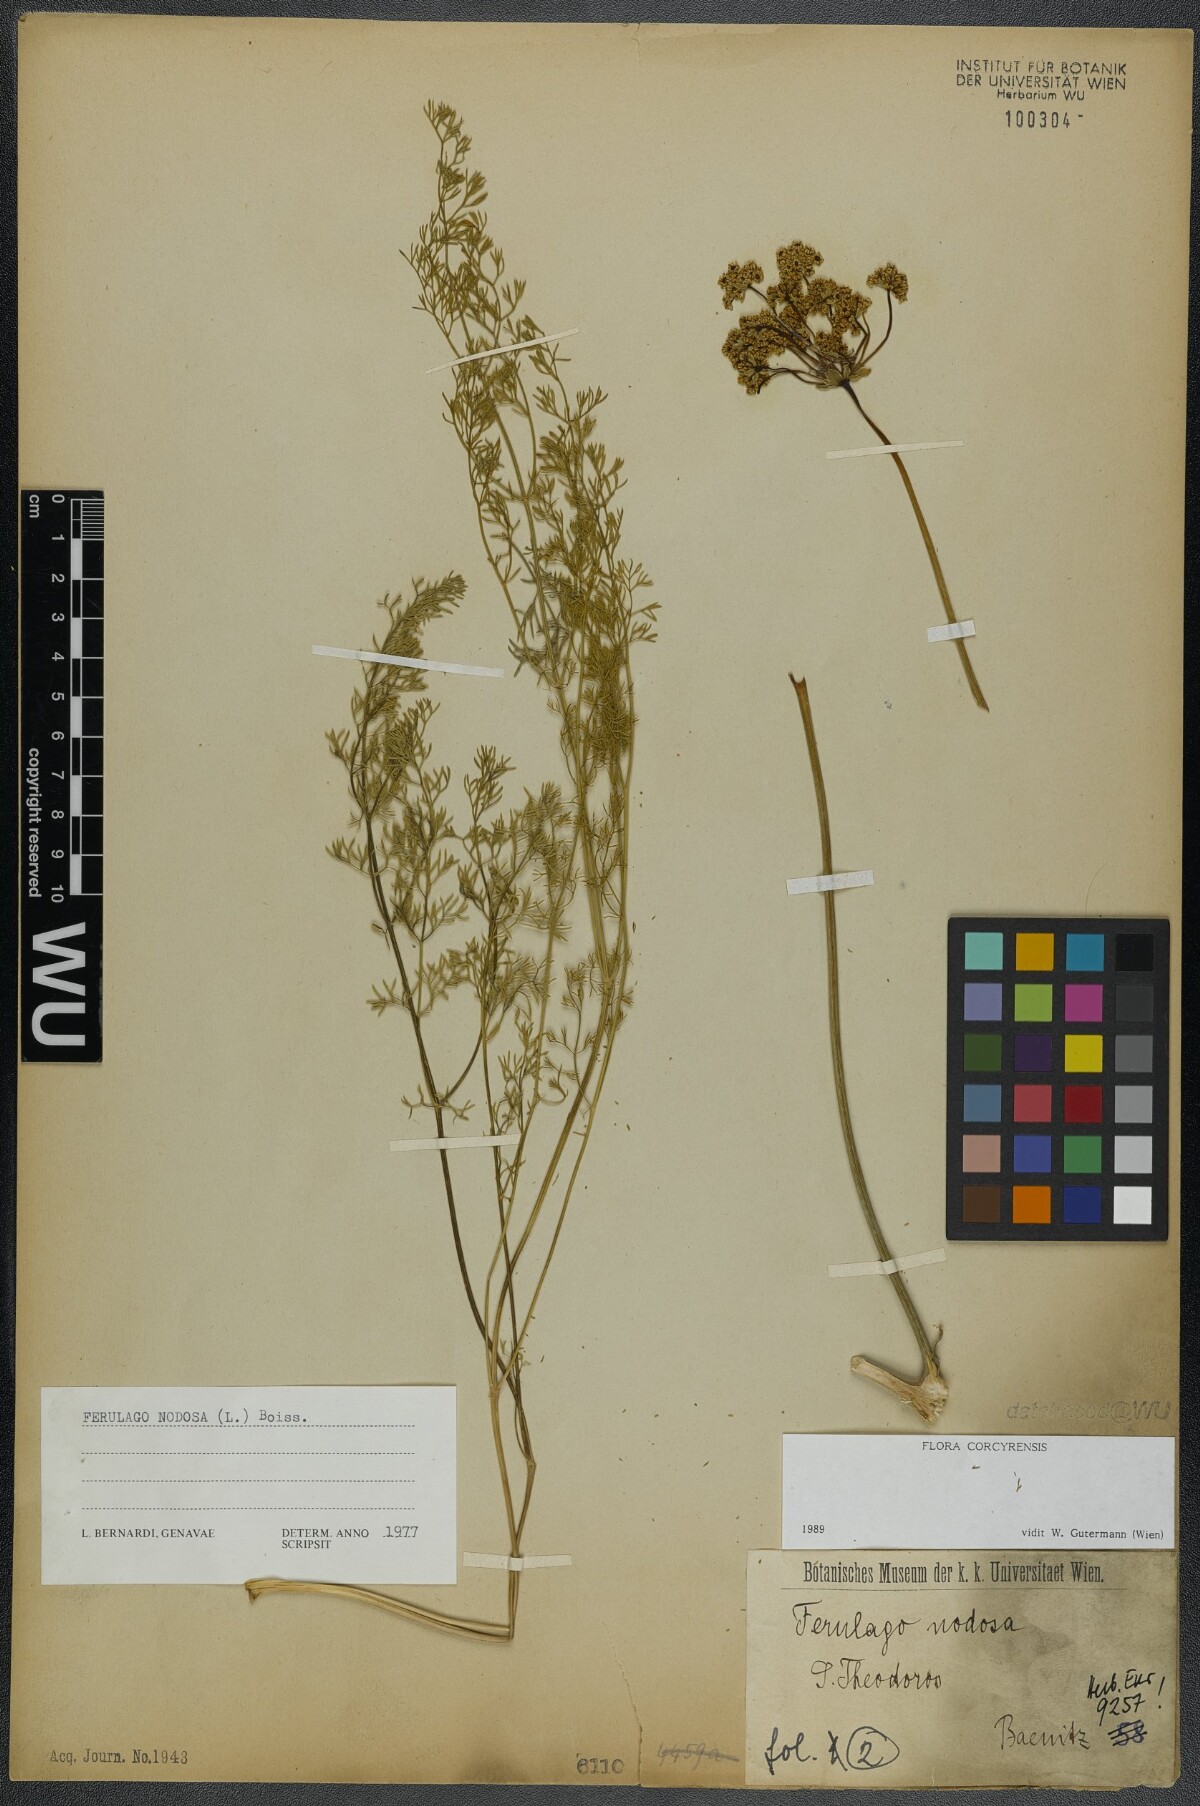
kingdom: Plantae
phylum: Tracheophyta
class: Magnoliopsida
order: Apiales
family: Apiaceae
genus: Ferulago
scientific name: Ferulago nodosa
